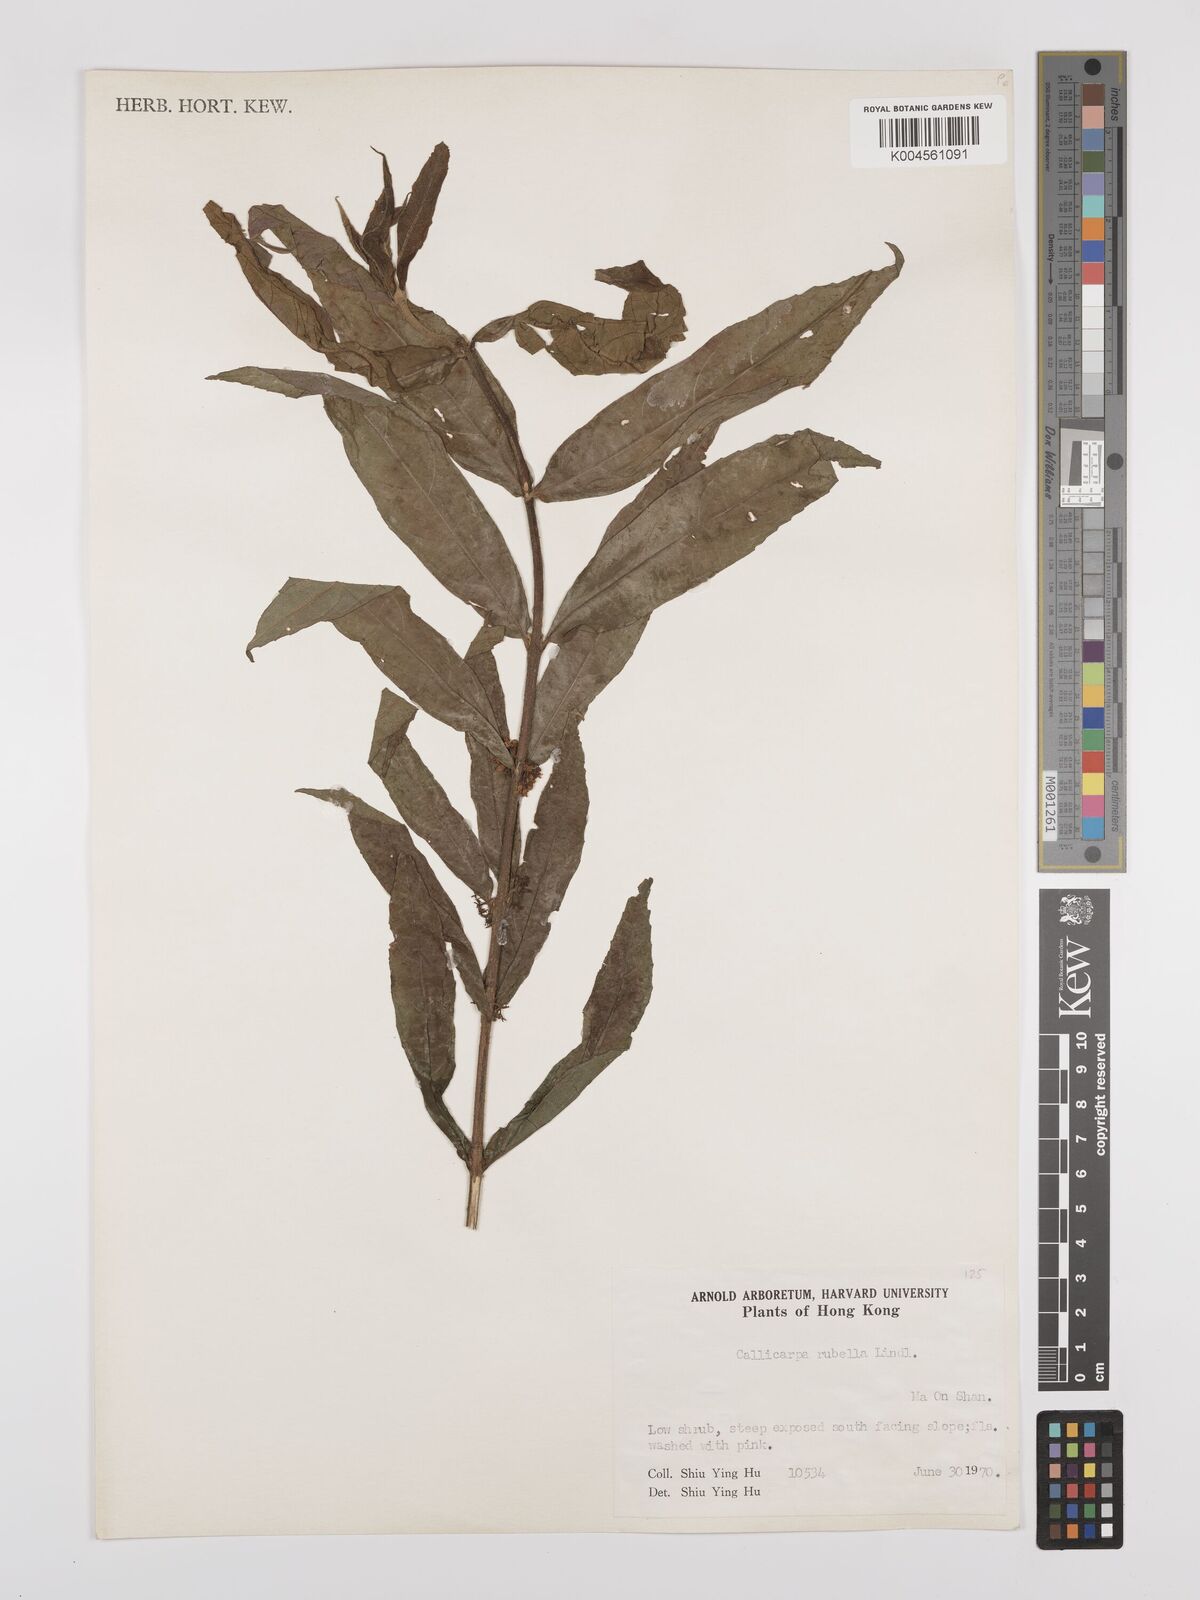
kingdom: Plantae
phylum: Tracheophyta
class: Magnoliopsida
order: Lamiales
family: Lamiaceae
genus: Callicarpa
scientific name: Callicarpa rubella
